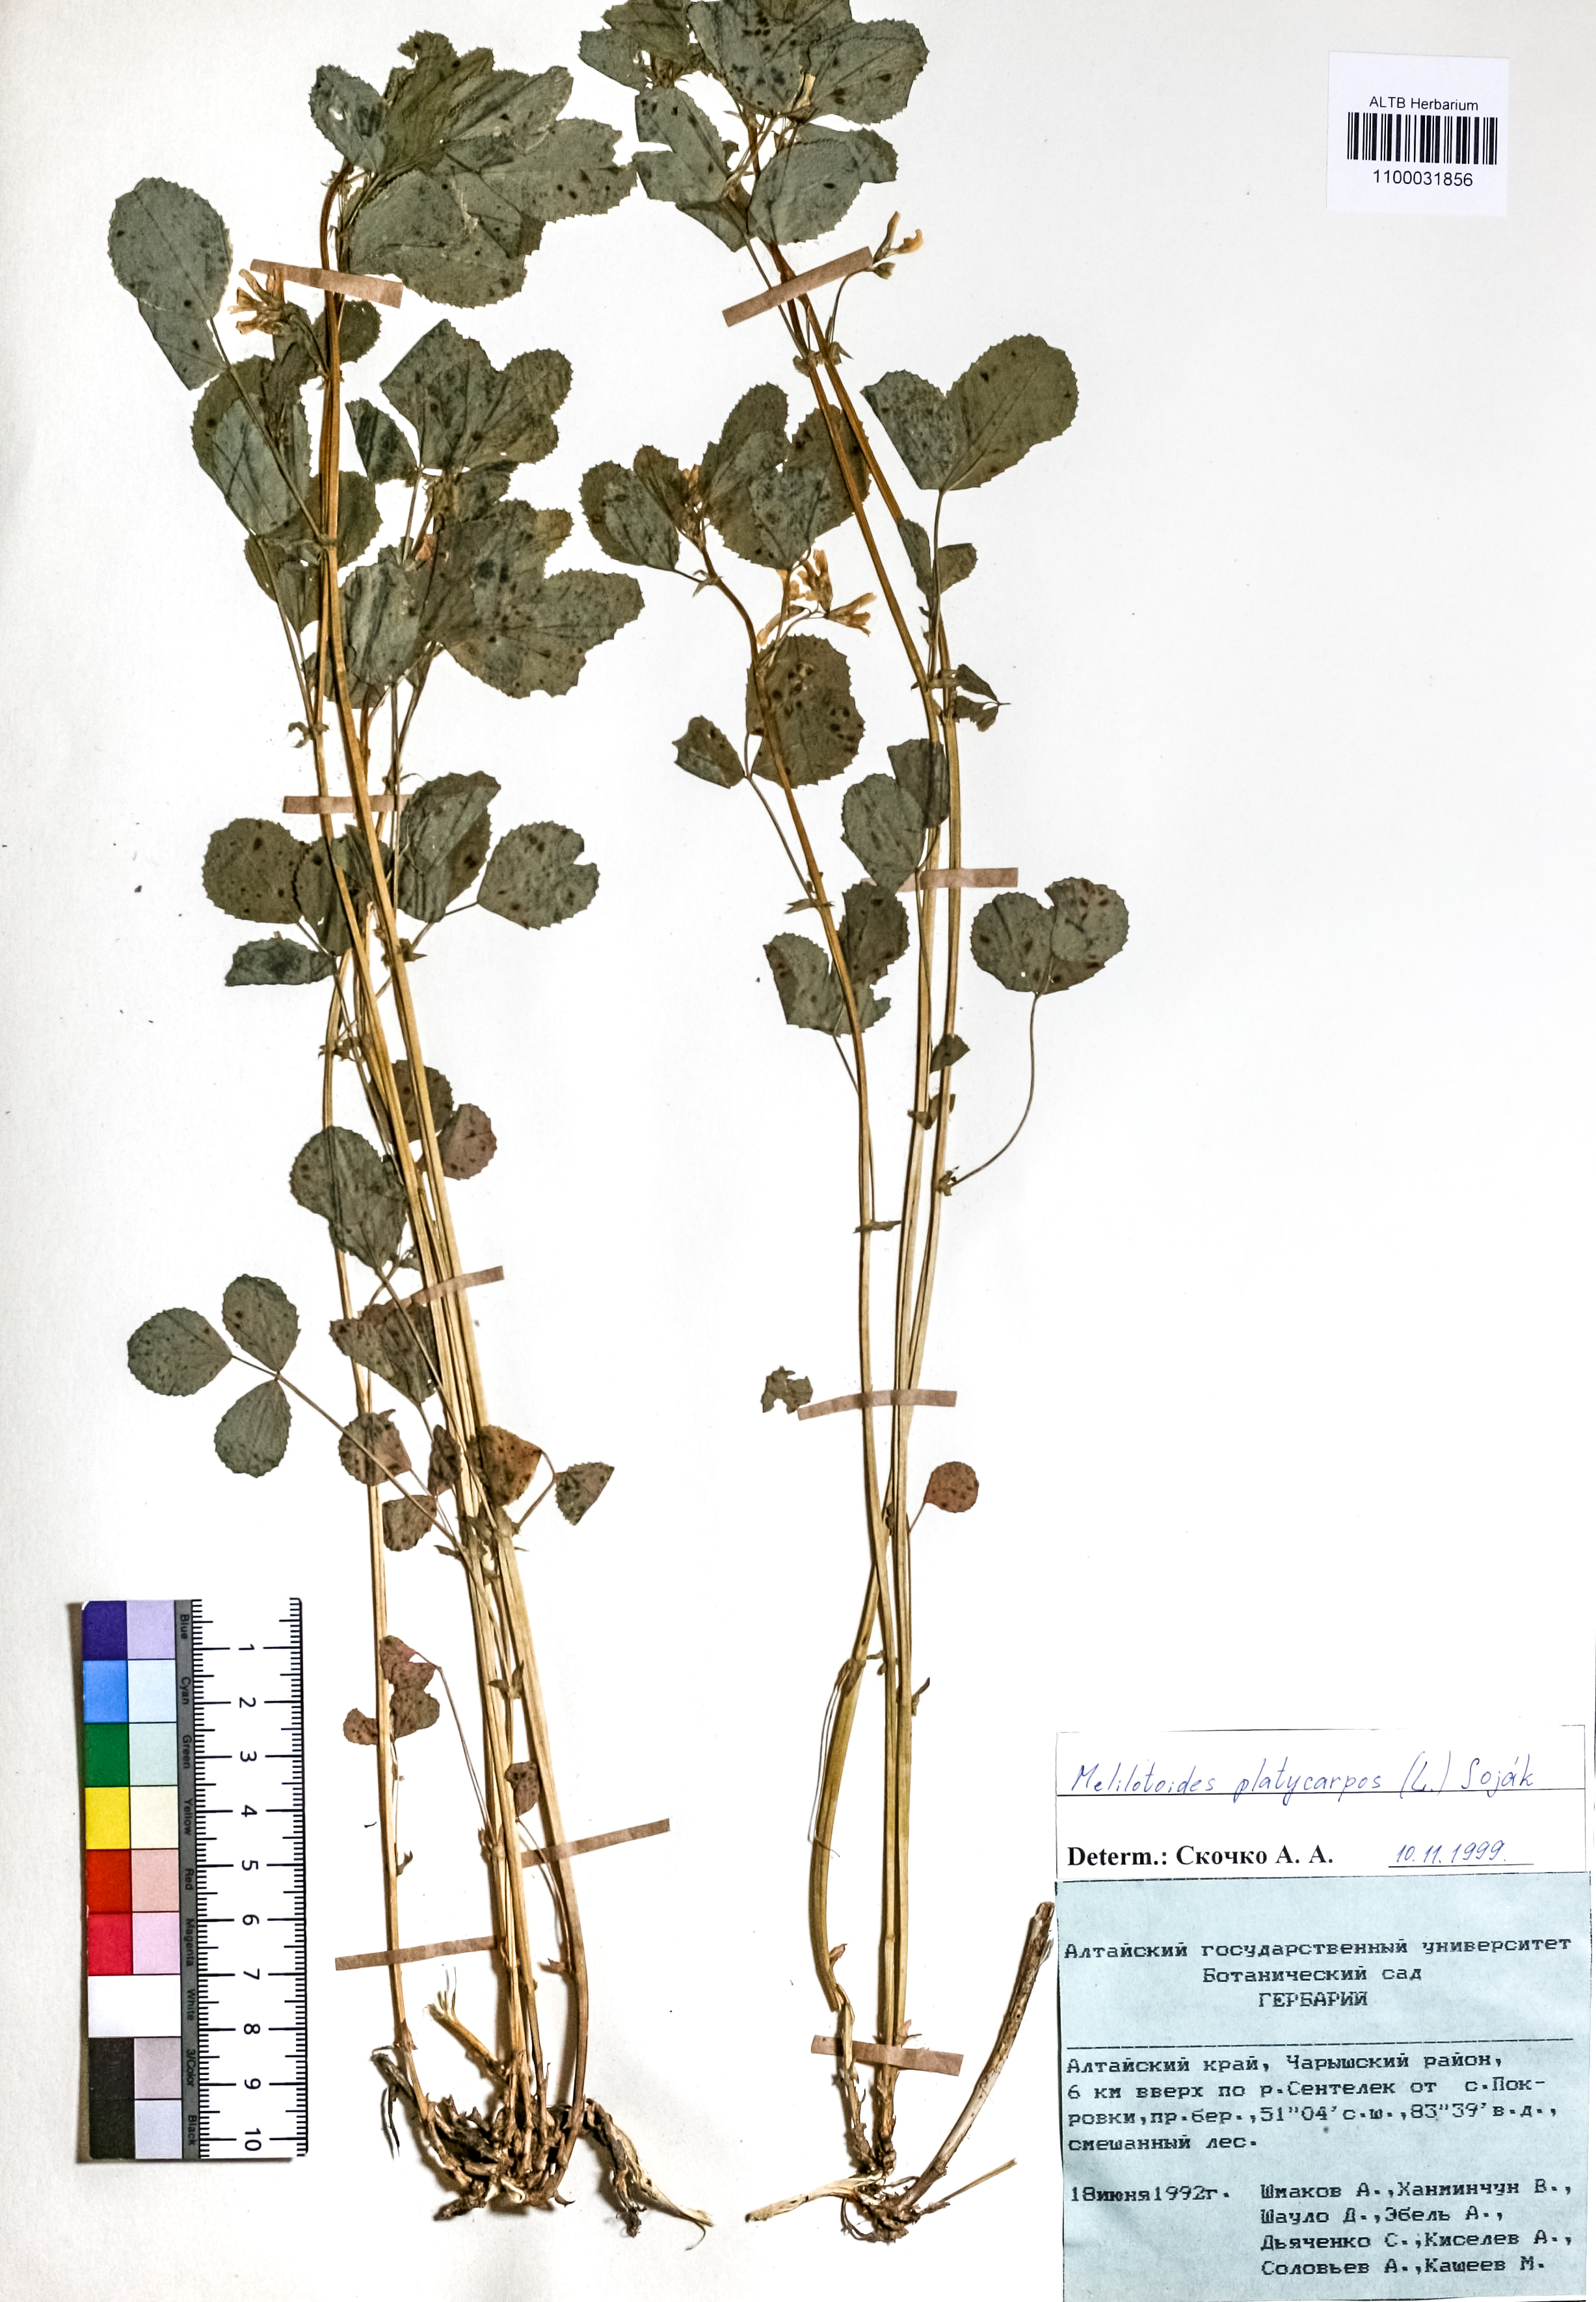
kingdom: Plantae
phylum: Tracheophyta
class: Magnoliopsida
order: Fabales
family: Fabaceae
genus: Medicago
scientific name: Medicago platycarpos
